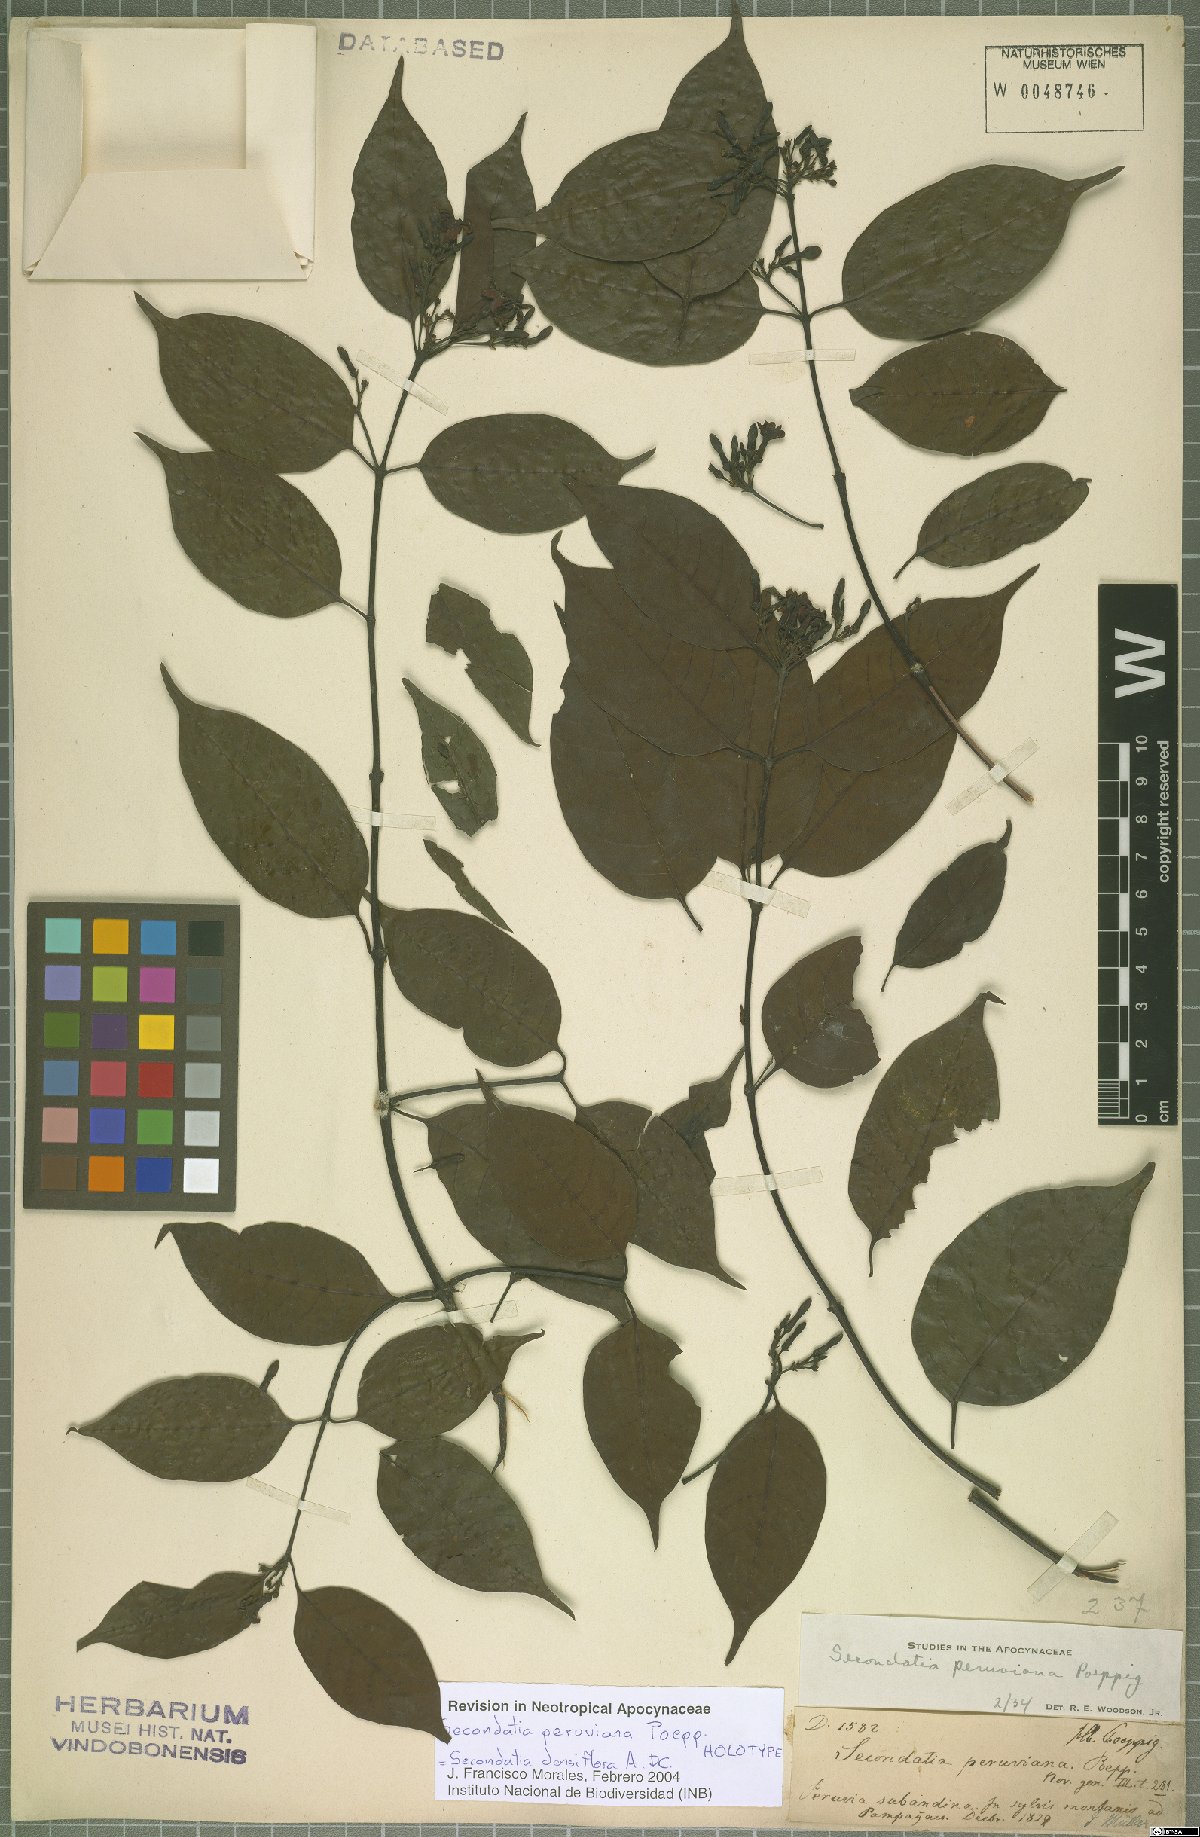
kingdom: Plantae
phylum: Tracheophyta
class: Magnoliopsida
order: Gentianales
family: Apocynaceae
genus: Secondatia
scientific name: Secondatia densiflora
